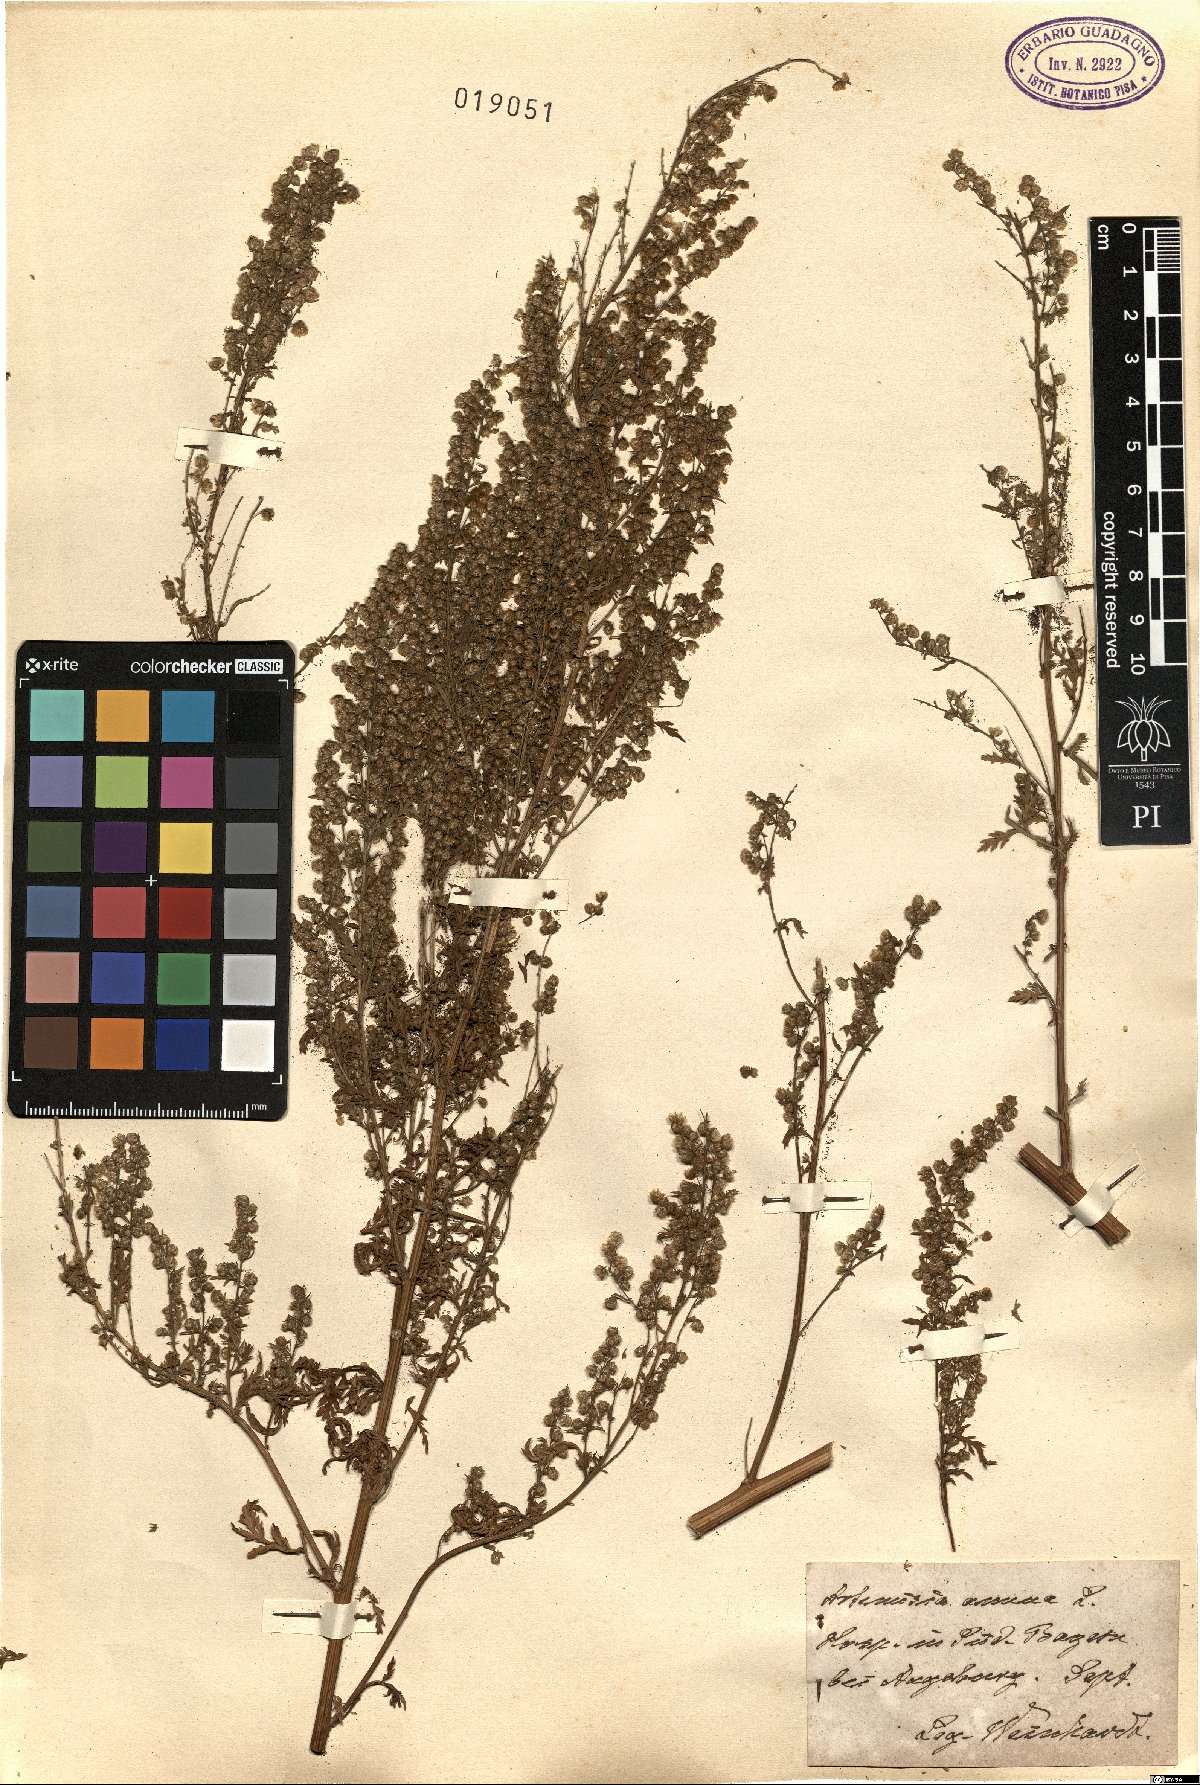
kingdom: Plantae
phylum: Tracheophyta
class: Magnoliopsida
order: Asterales
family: Asteraceae
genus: Artemisia
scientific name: Artemisia annua
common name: Sweet sagewort
